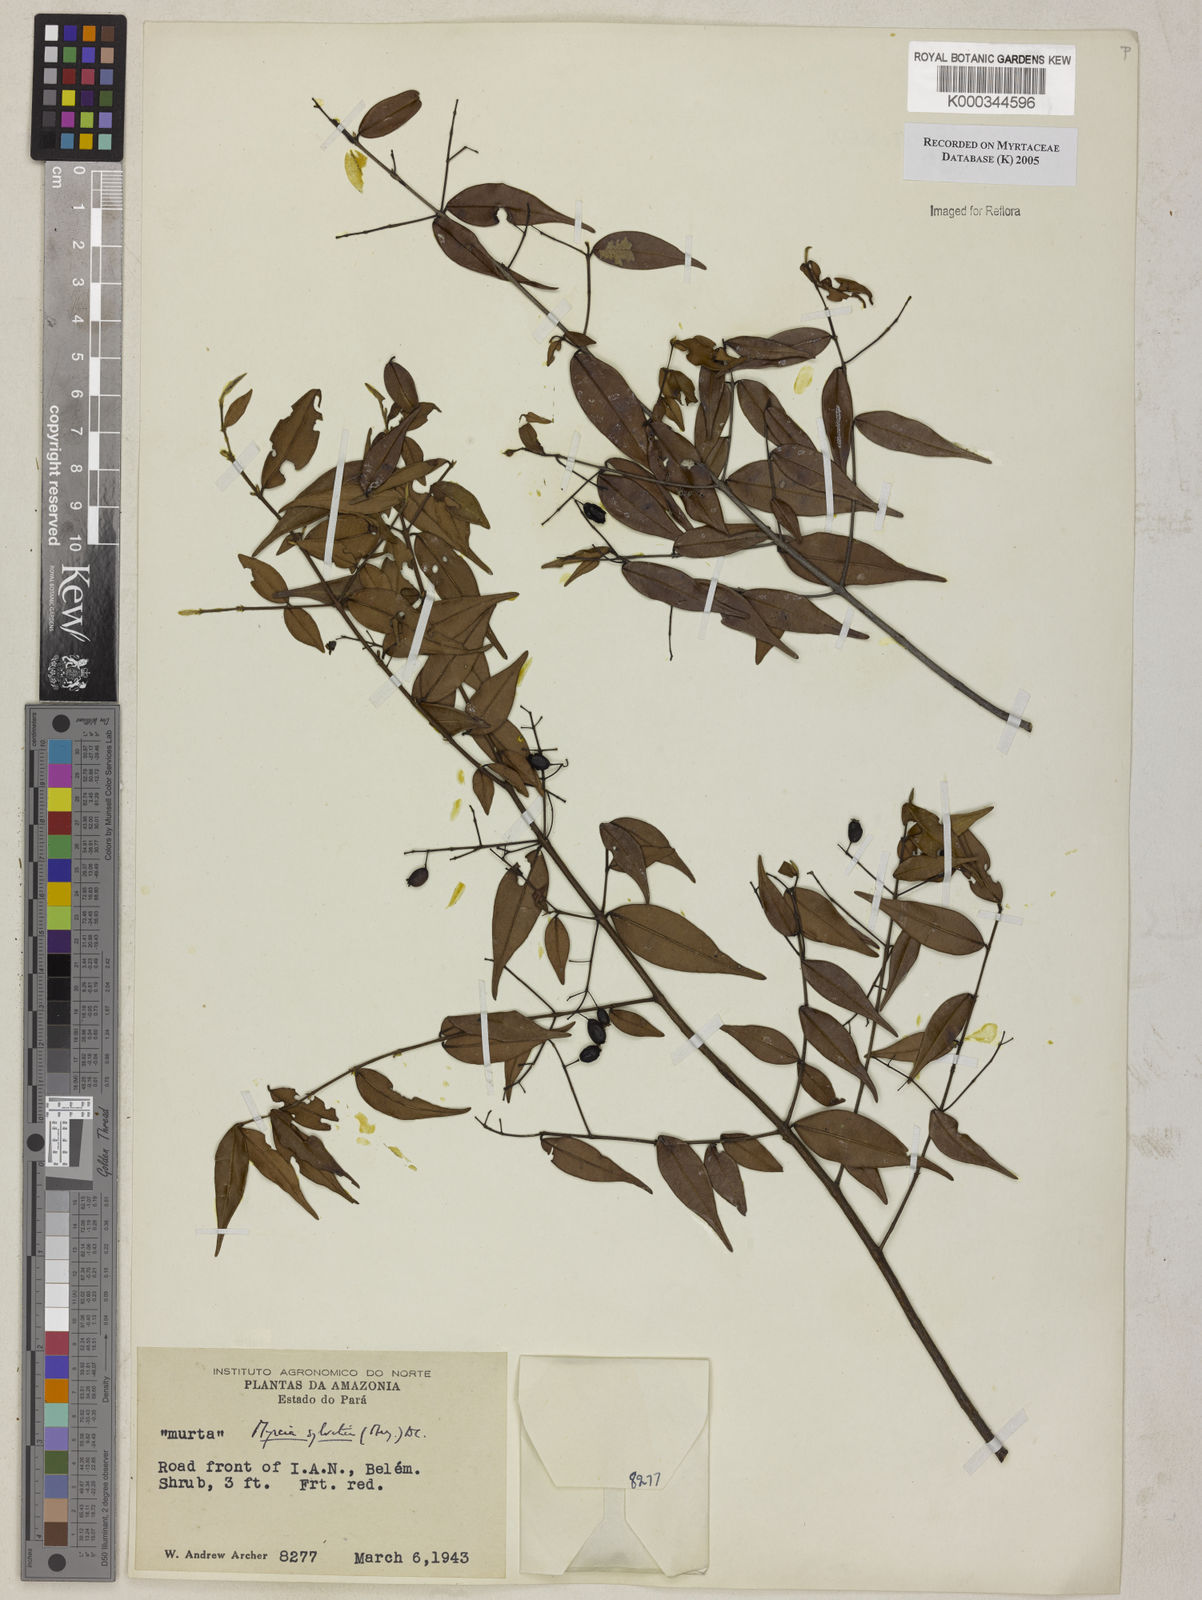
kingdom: Plantae
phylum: Tracheophyta
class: Magnoliopsida
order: Myrtales
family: Myrtaceae
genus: Myrcia
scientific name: Myrcia sylvatica
